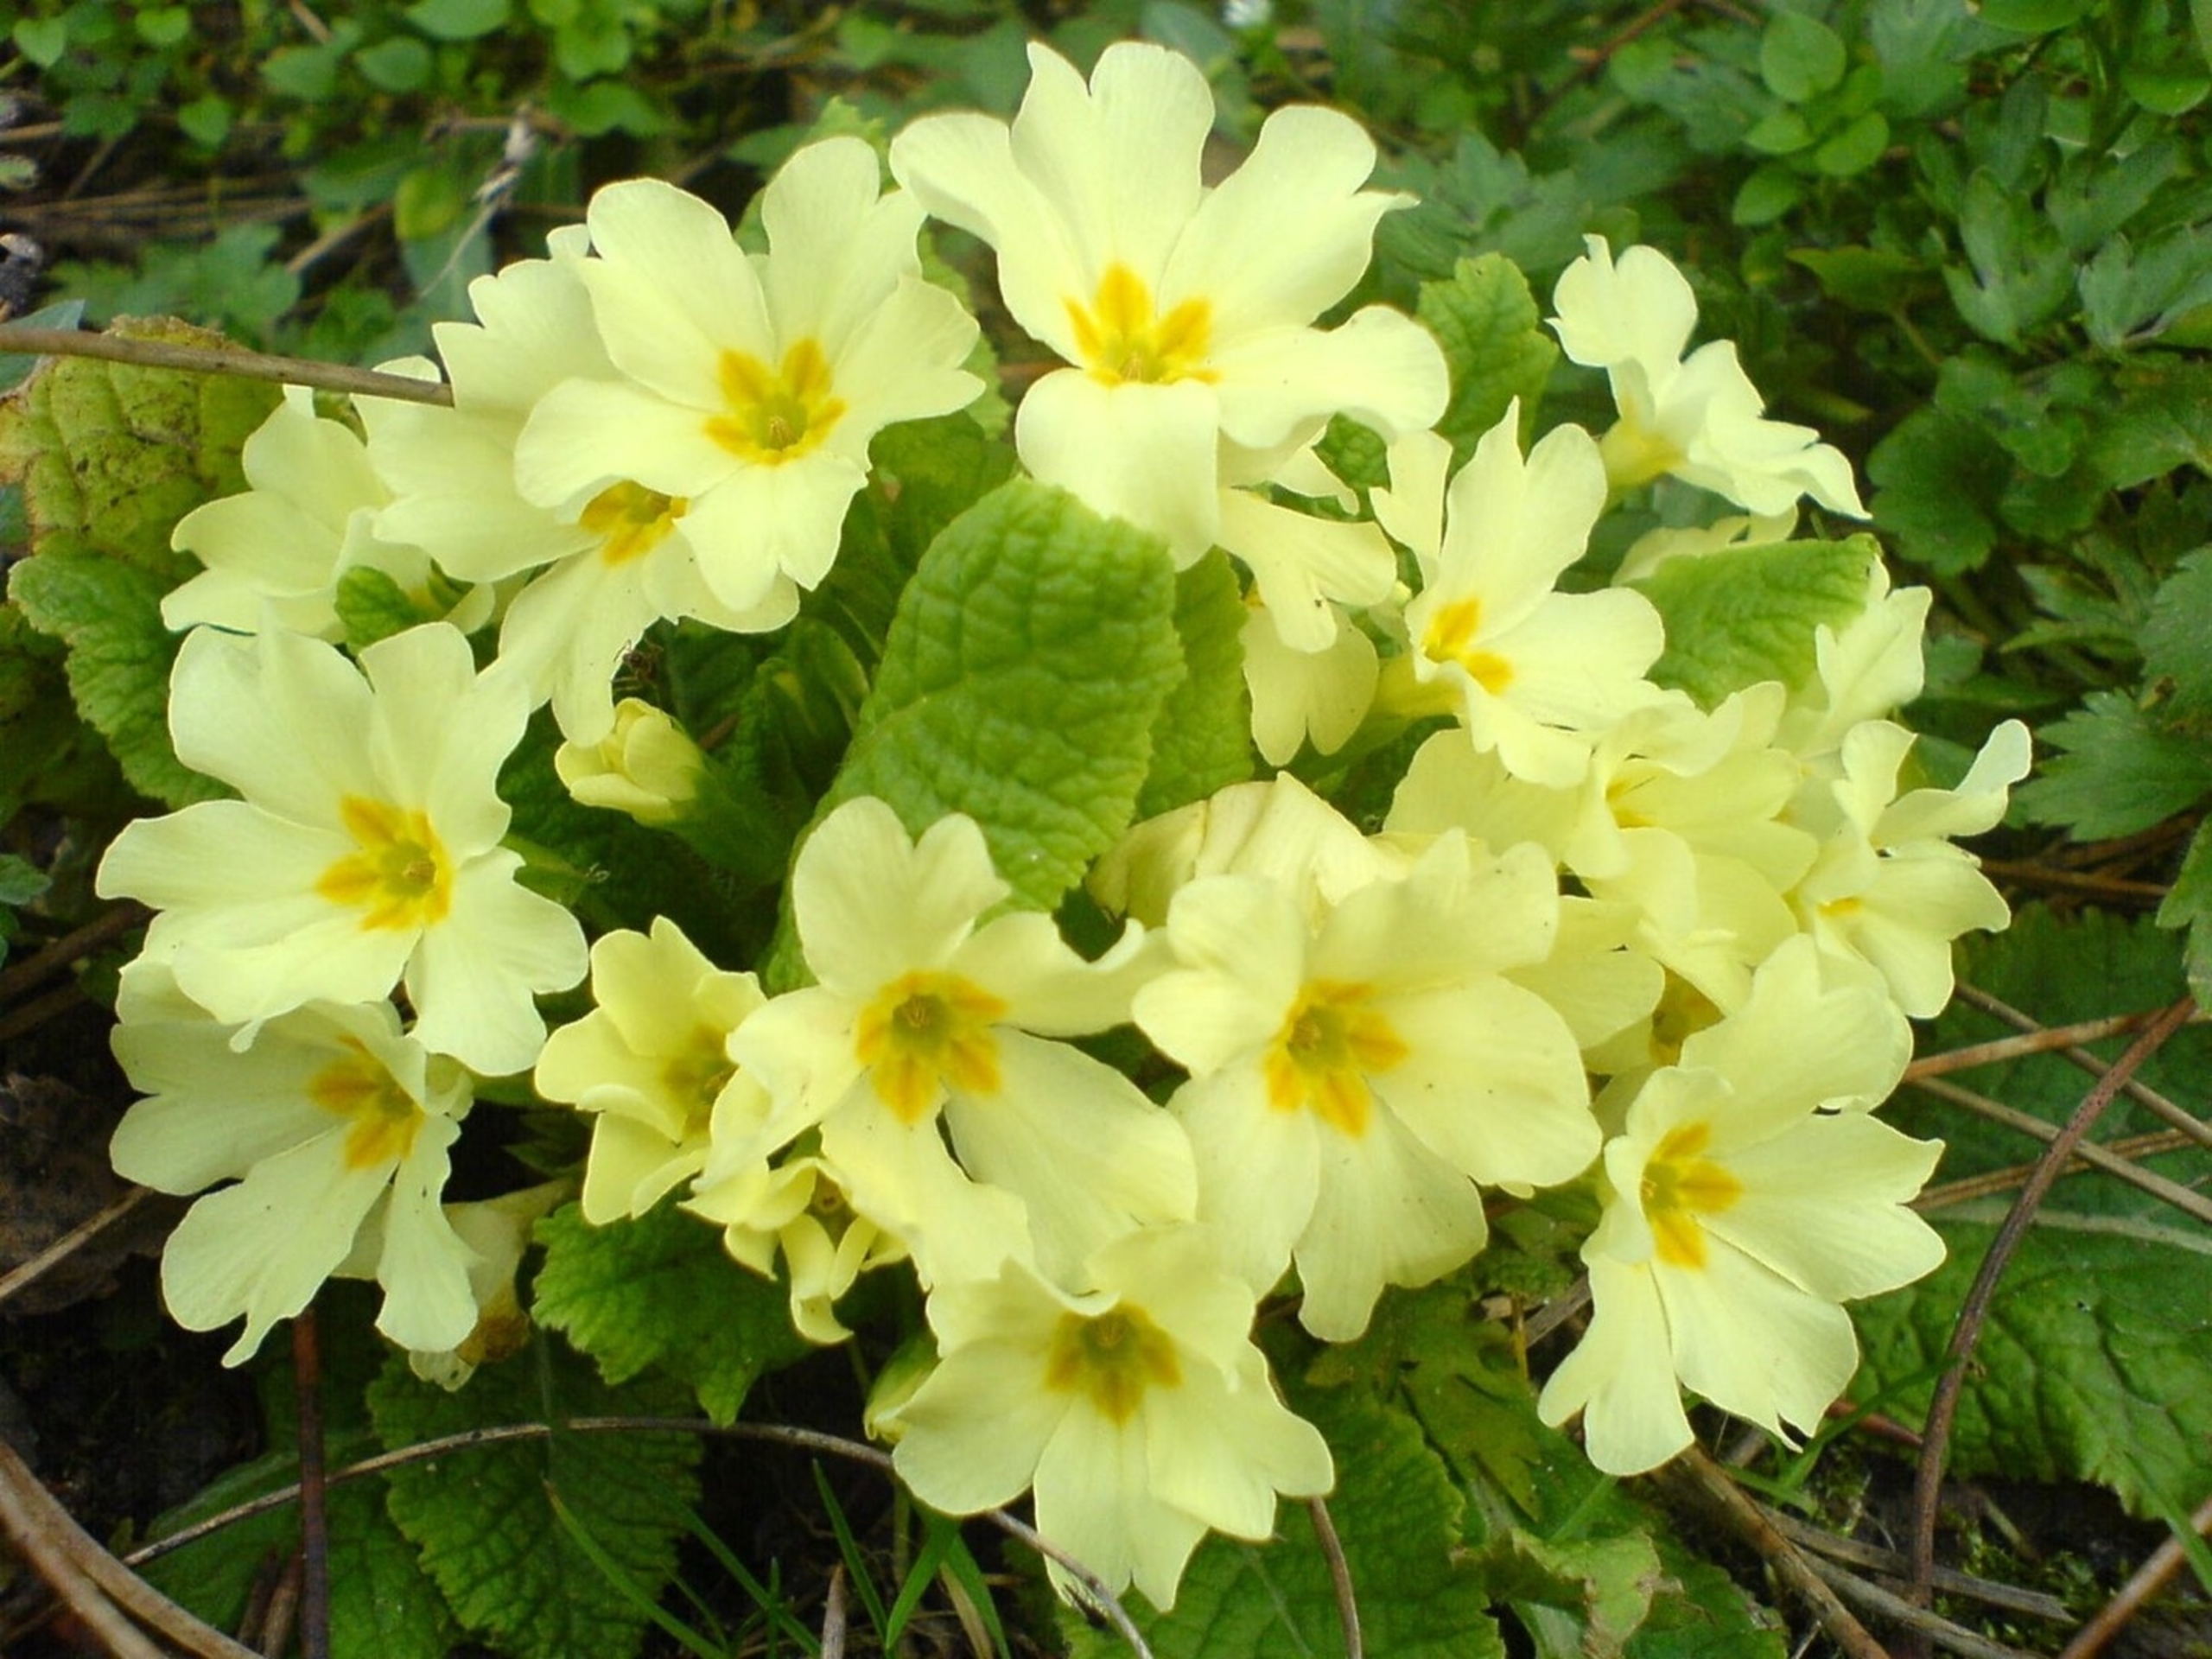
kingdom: Plantae
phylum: Tracheophyta
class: Magnoliopsida
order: Ericales
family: Primulaceae
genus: Primula
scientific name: Primula vulgaris
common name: Storblomstret kodriver
